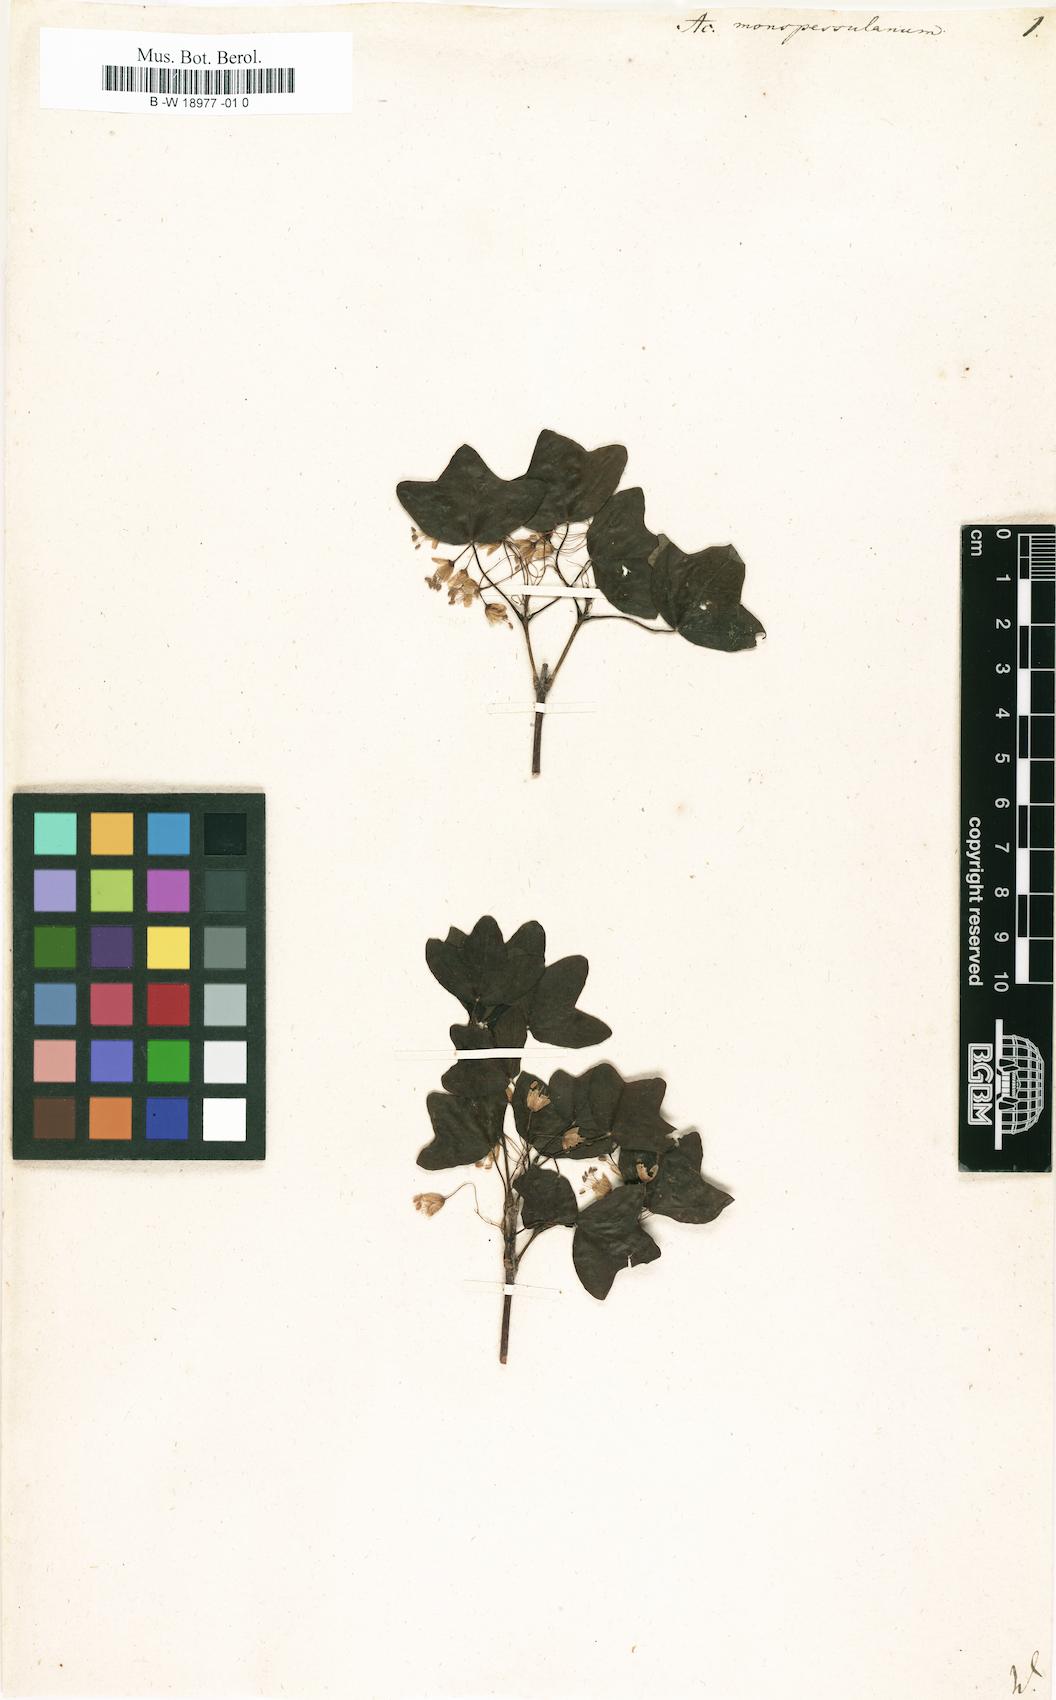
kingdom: Plantae
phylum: Tracheophyta
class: Magnoliopsida
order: Sapindales
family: Sapindaceae
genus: Acer
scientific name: Acer monspessulanum
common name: Montpellier maple
